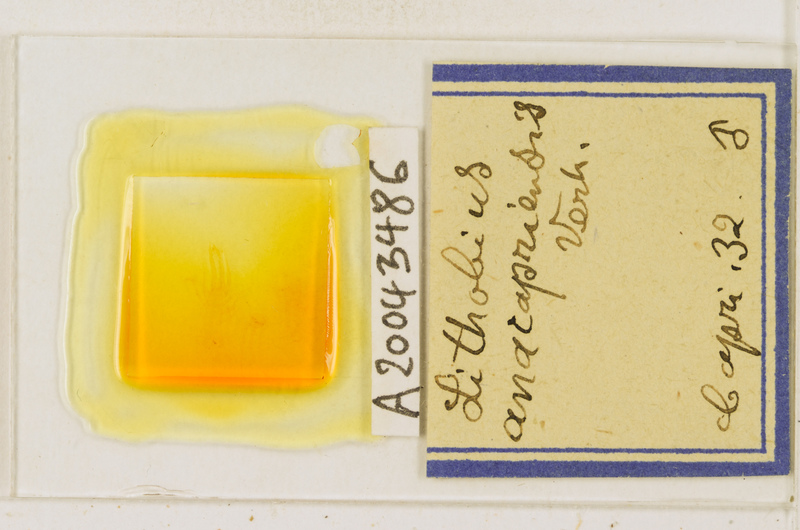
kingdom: Animalia
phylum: Arthropoda
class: Chilopoda
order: Lithobiomorpha
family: Lithobiidae
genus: Lithobius
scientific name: Lithobius erythrocephalus
